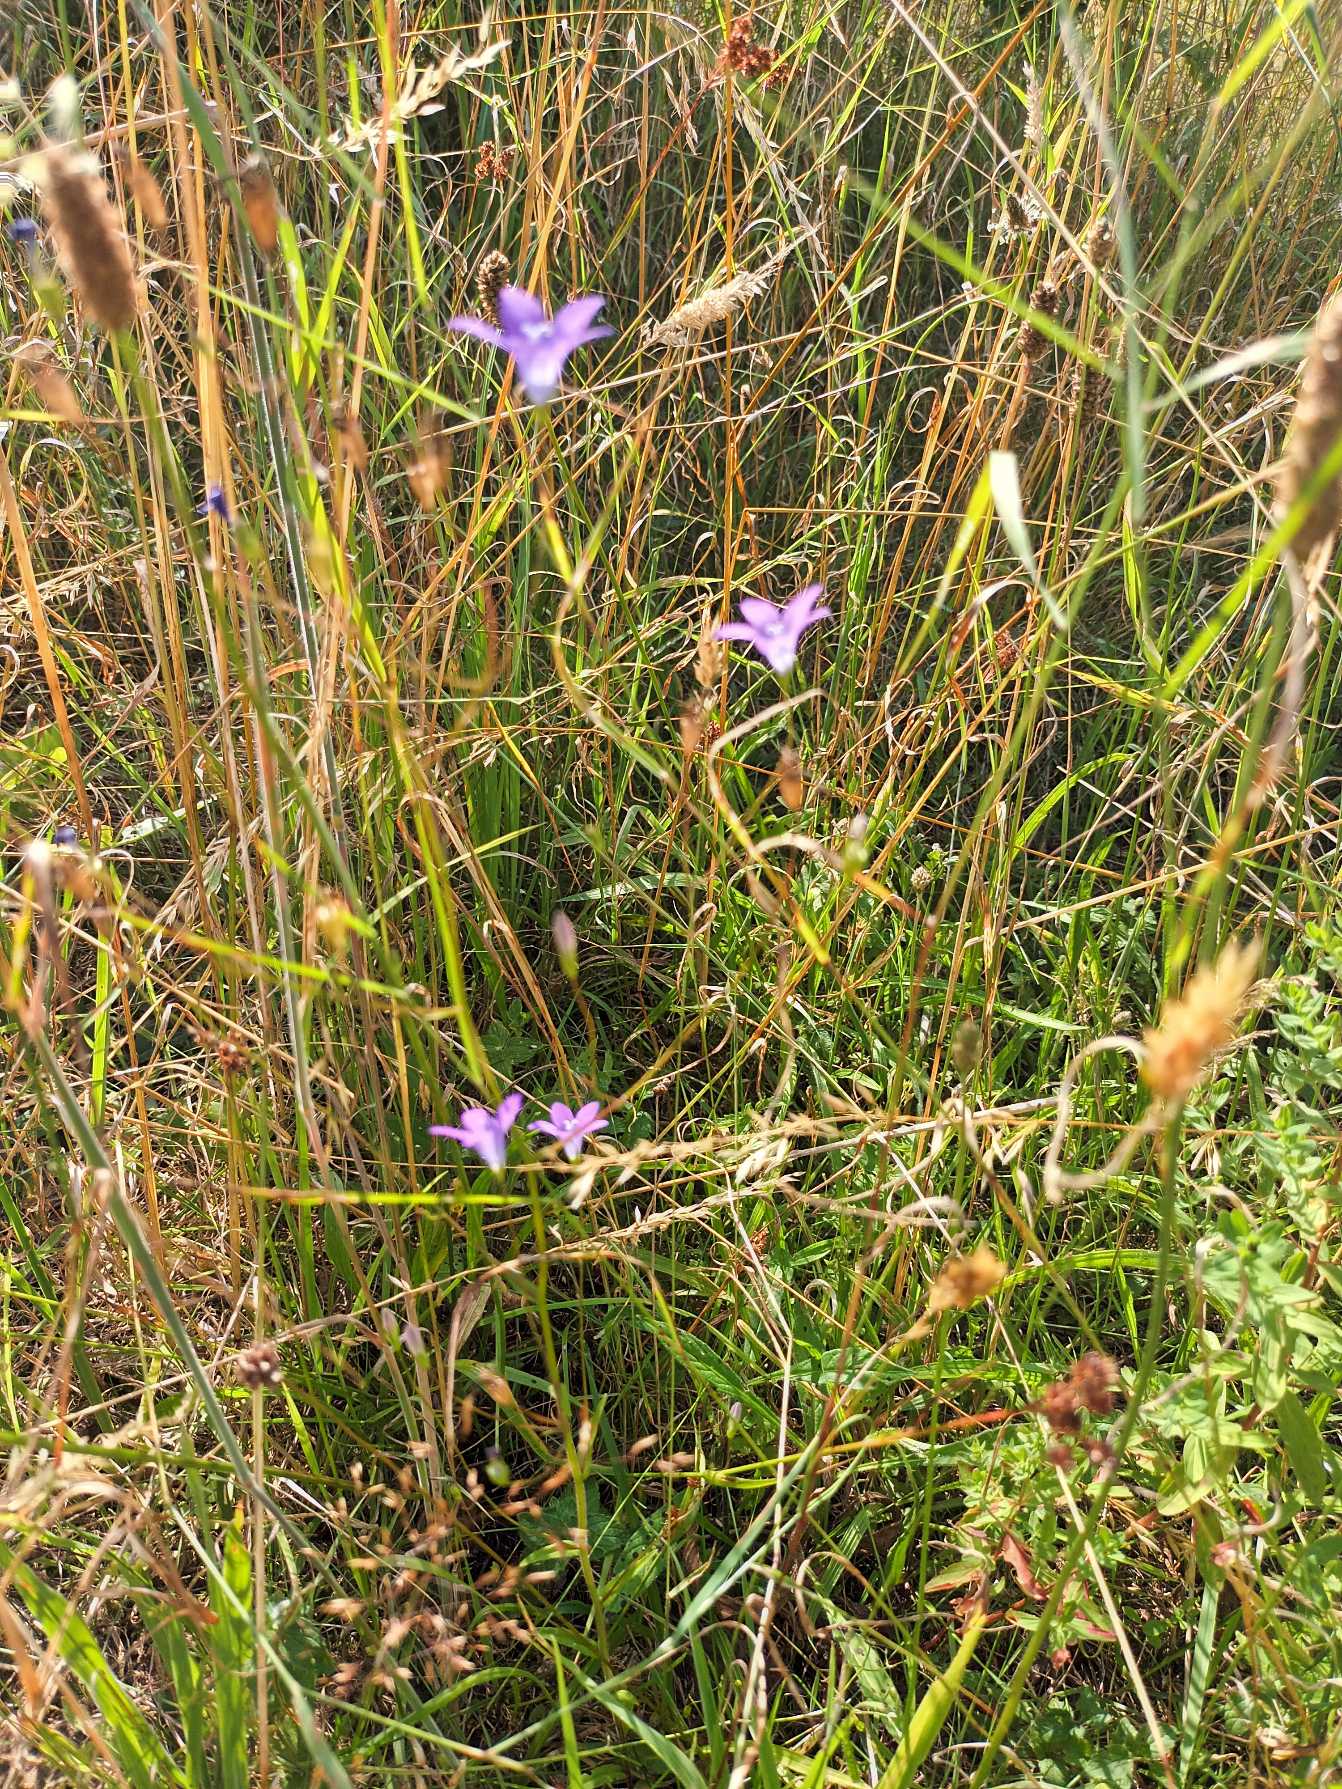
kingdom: Plantae
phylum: Tracheophyta
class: Magnoliopsida
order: Asterales
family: Campanulaceae
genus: Campanula
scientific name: Campanula patula
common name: Eng-klokke
